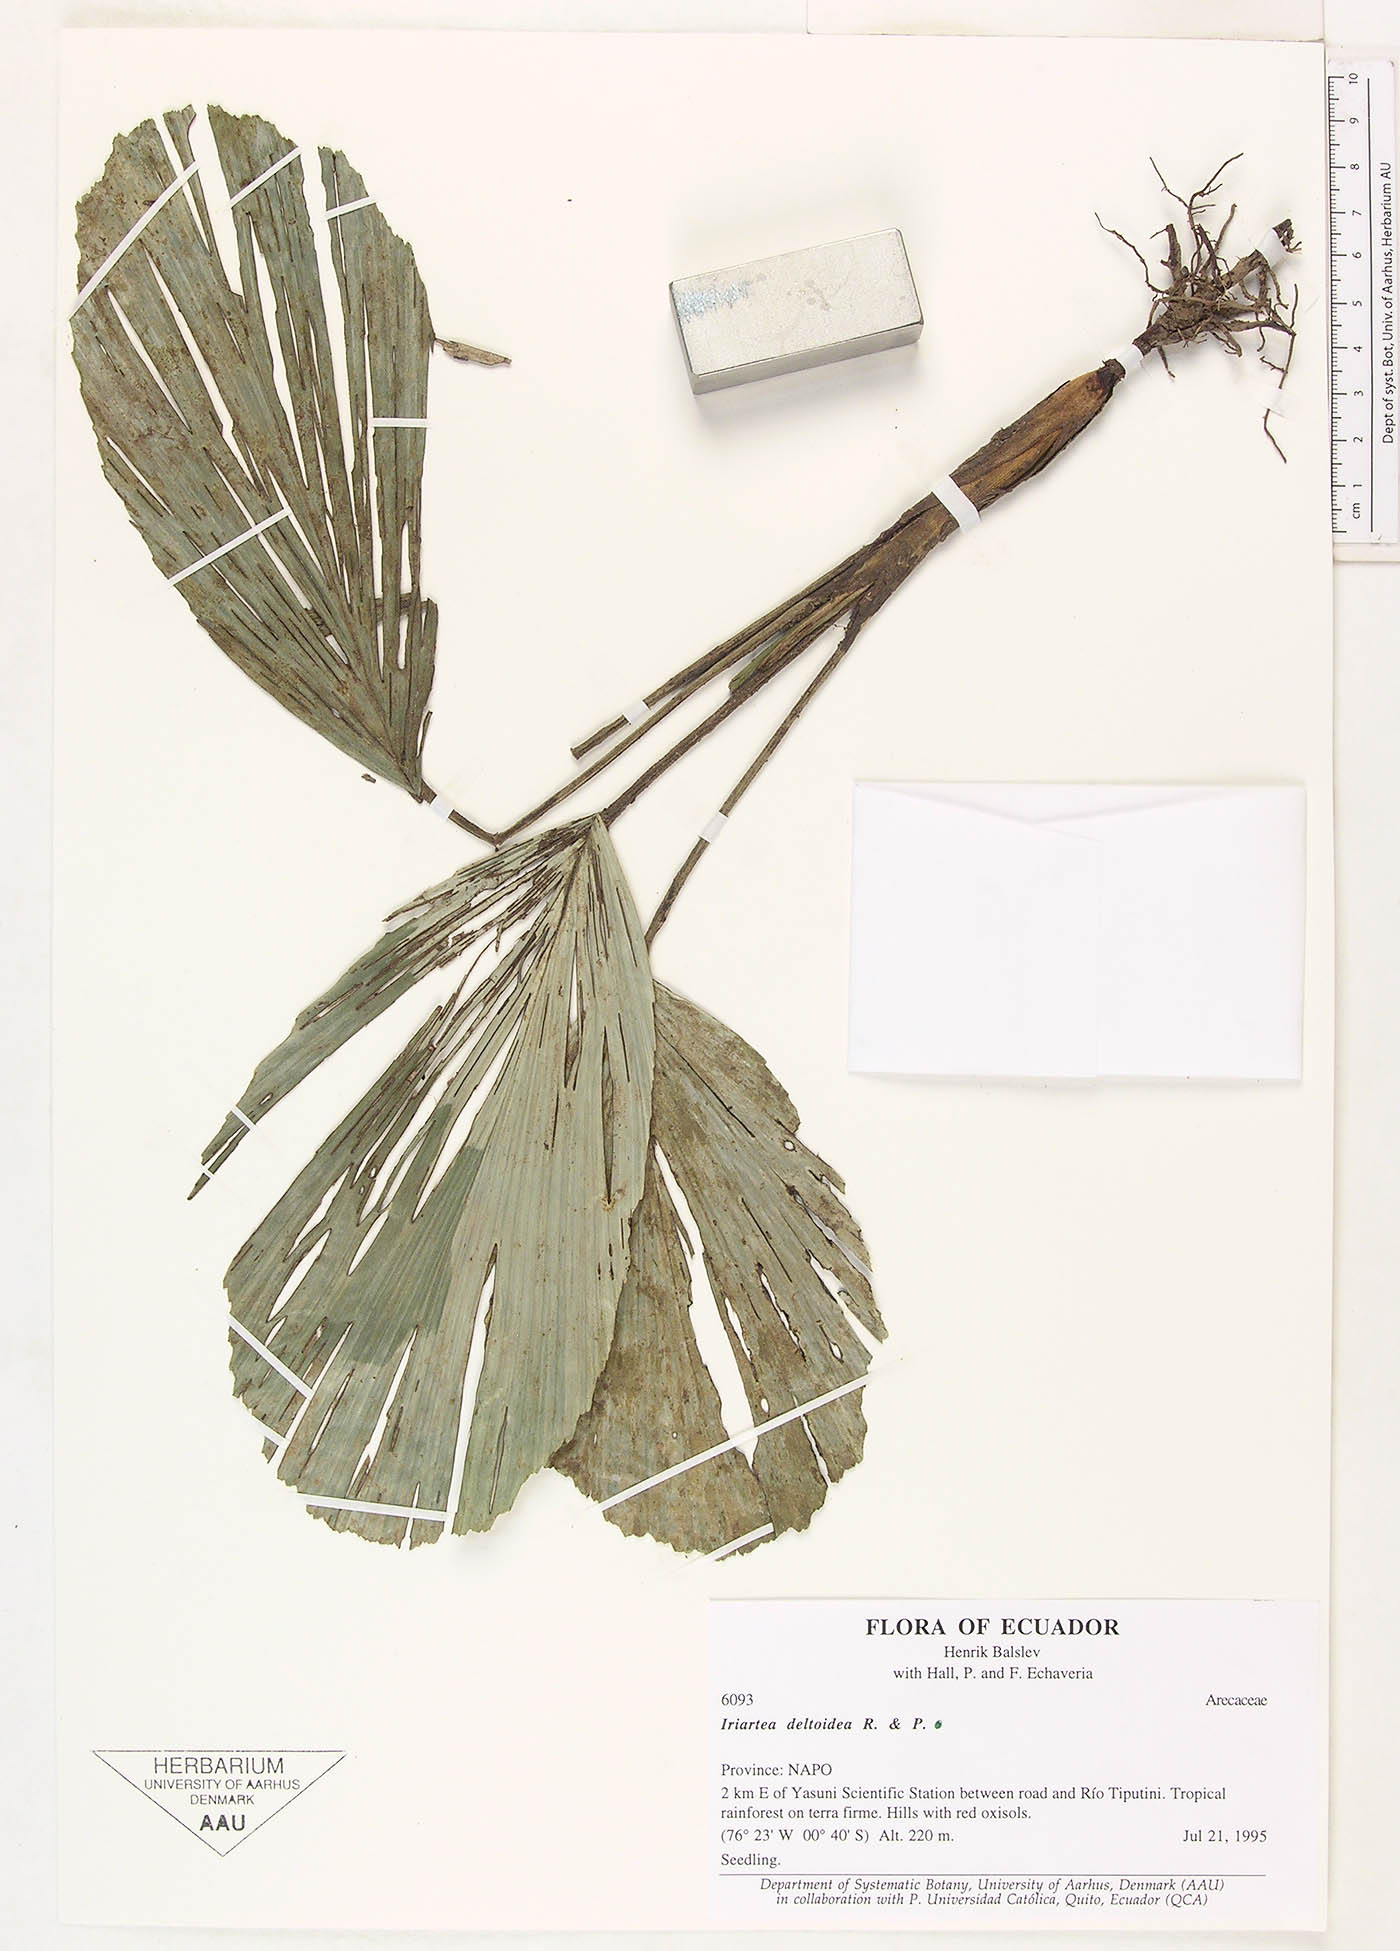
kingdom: Plantae
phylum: Tracheophyta
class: Liliopsida
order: Arecales
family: Arecaceae
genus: Iriartea
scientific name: Iriartea deltoidea
